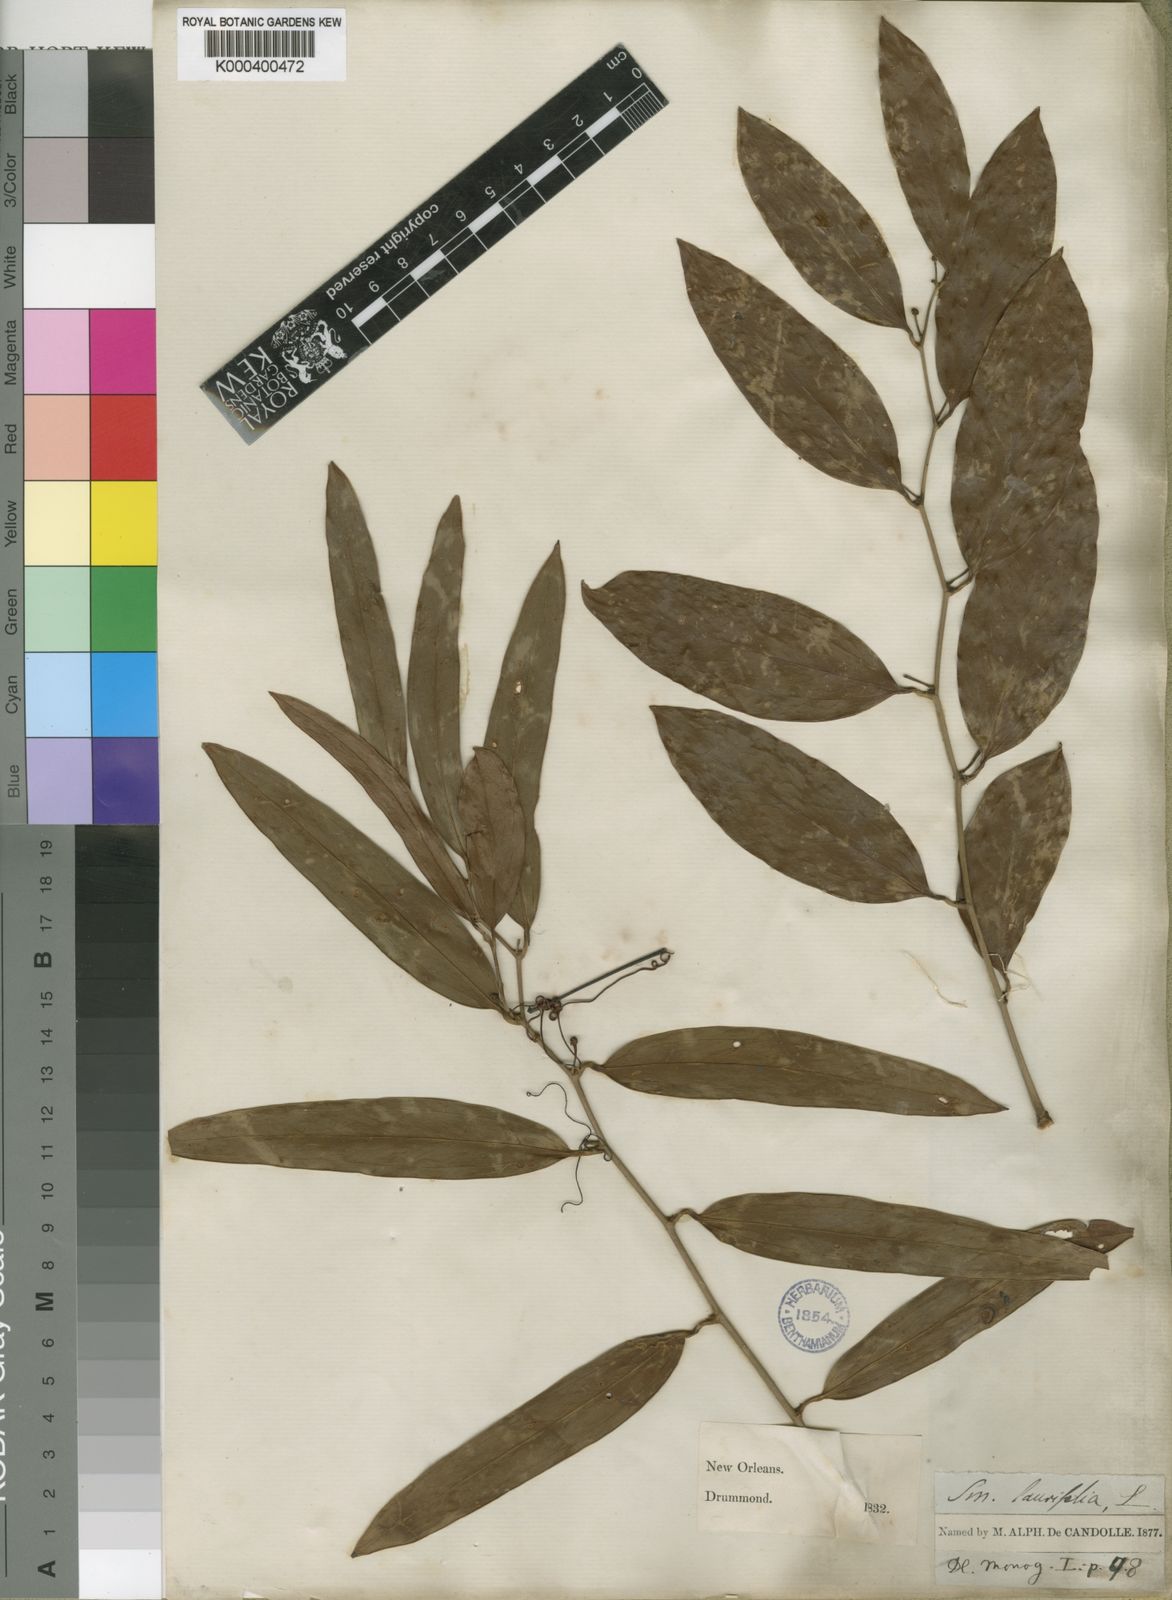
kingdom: Plantae
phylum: Tracheophyta
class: Liliopsida
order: Liliales
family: Smilacaceae
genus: Smilax
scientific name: Smilax laurifolia
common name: Bamboovine
